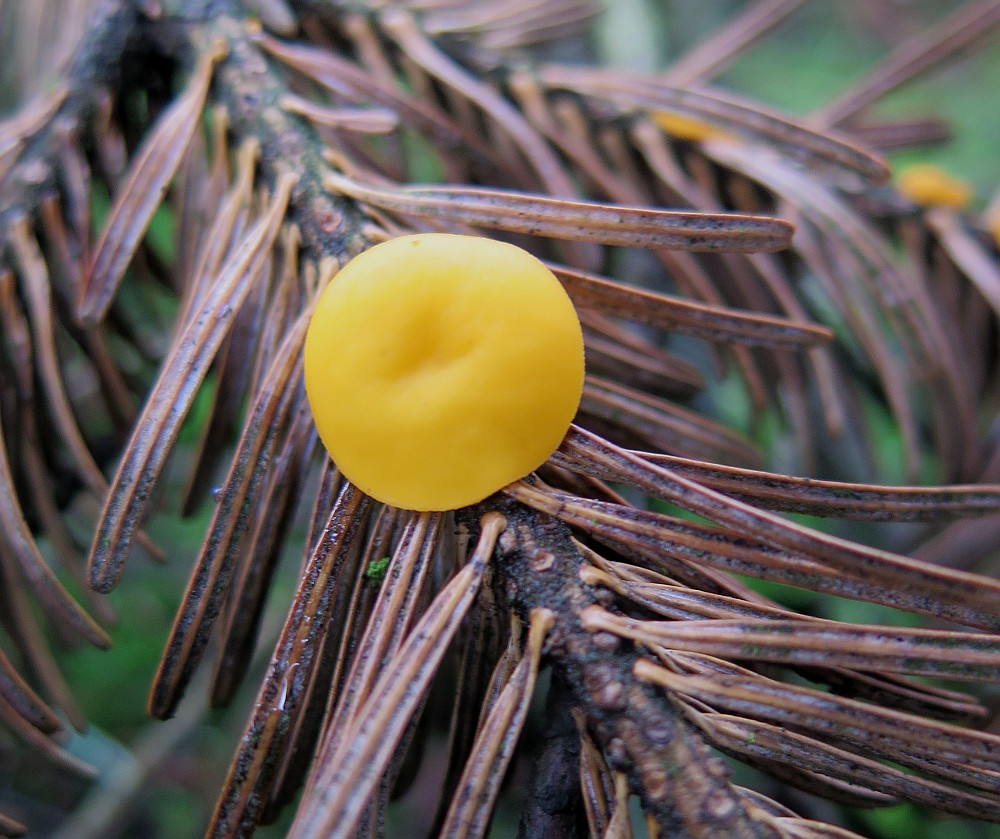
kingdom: Fungi
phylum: Ascomycota
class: Pezizomycetes
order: Pezizales
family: Sarcoscyphaceae
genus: Pithya
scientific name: Pithya vulgaris
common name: stor dukatbæger
